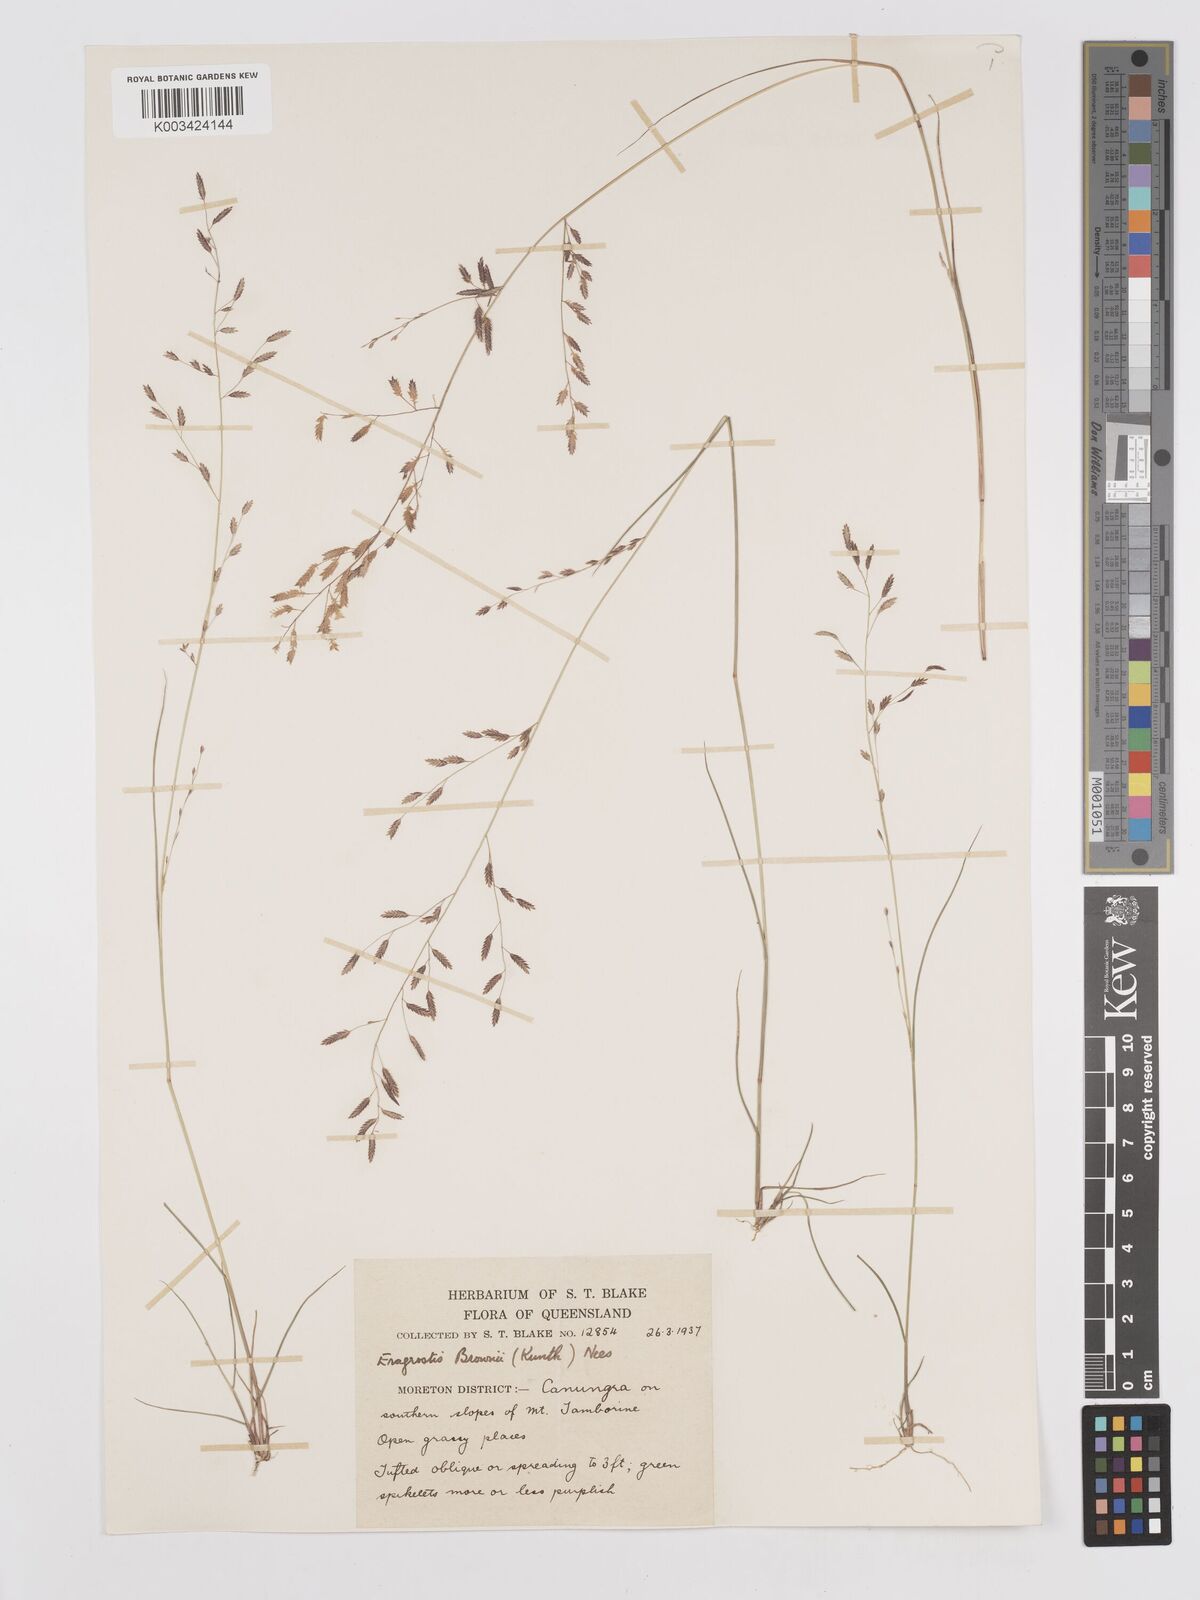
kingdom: Plantae
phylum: Tracheophyta
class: Liliopsida
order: Poales
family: Poaceae
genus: Eragrostis
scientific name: Eragrostis brownii
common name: Lovegrass
